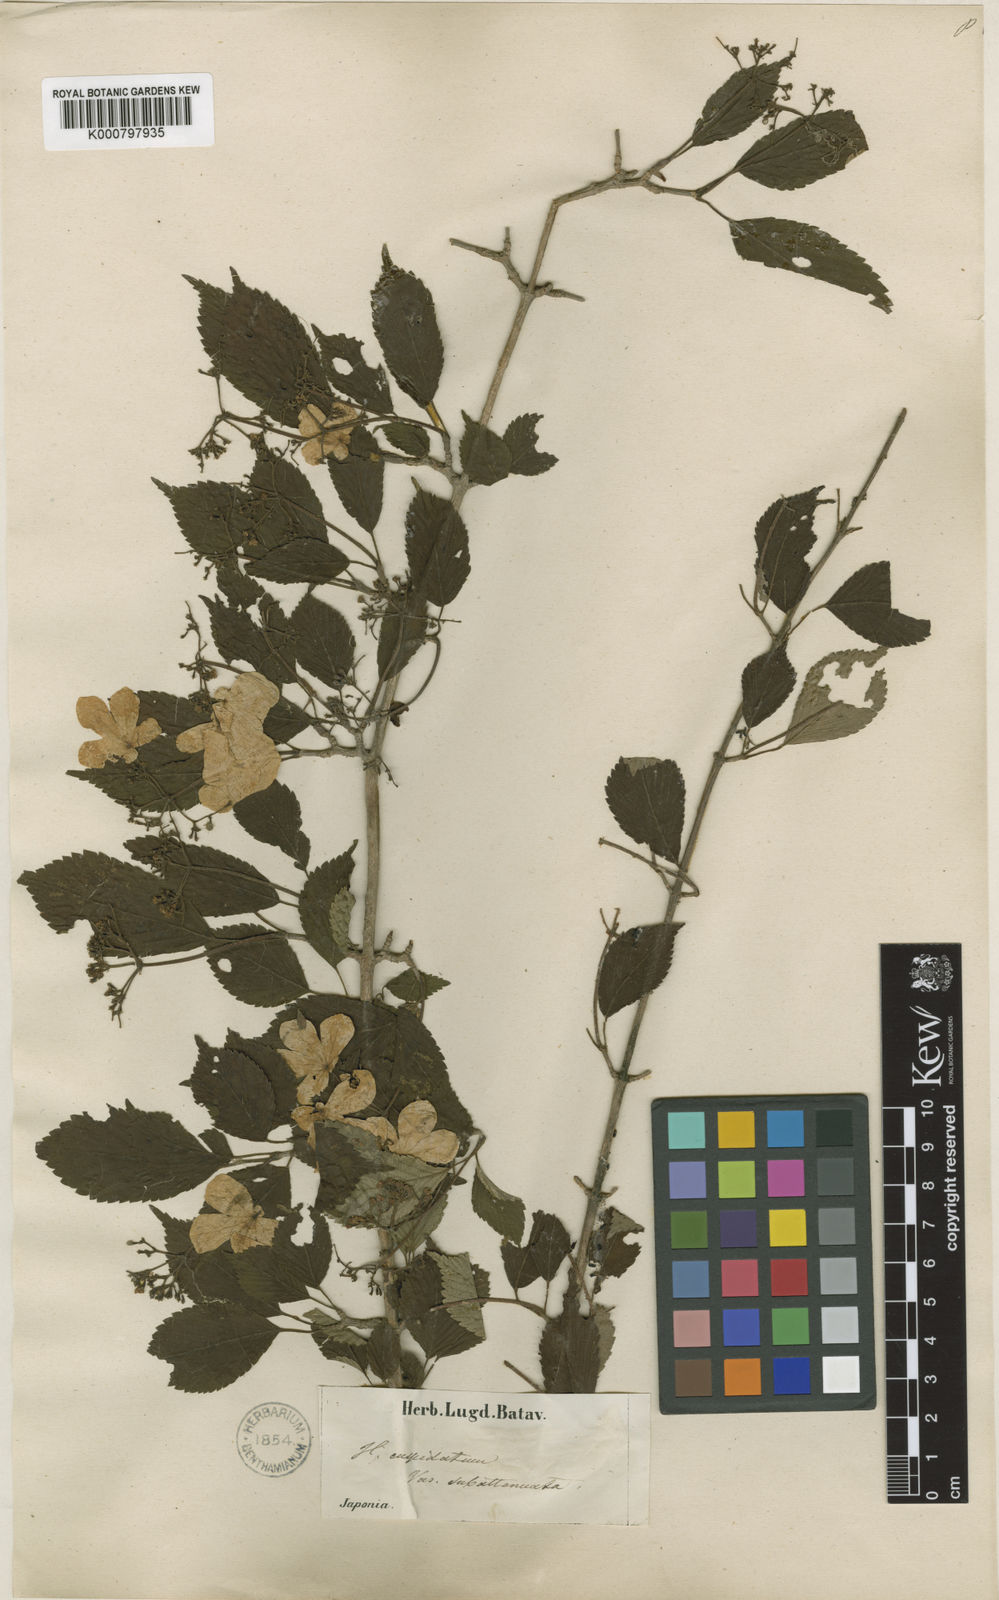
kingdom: Plantae
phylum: Tracheophyta
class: Magnoliopsida
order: Dipsacales
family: Viburnaceae
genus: Viburnum
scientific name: Viburnum
